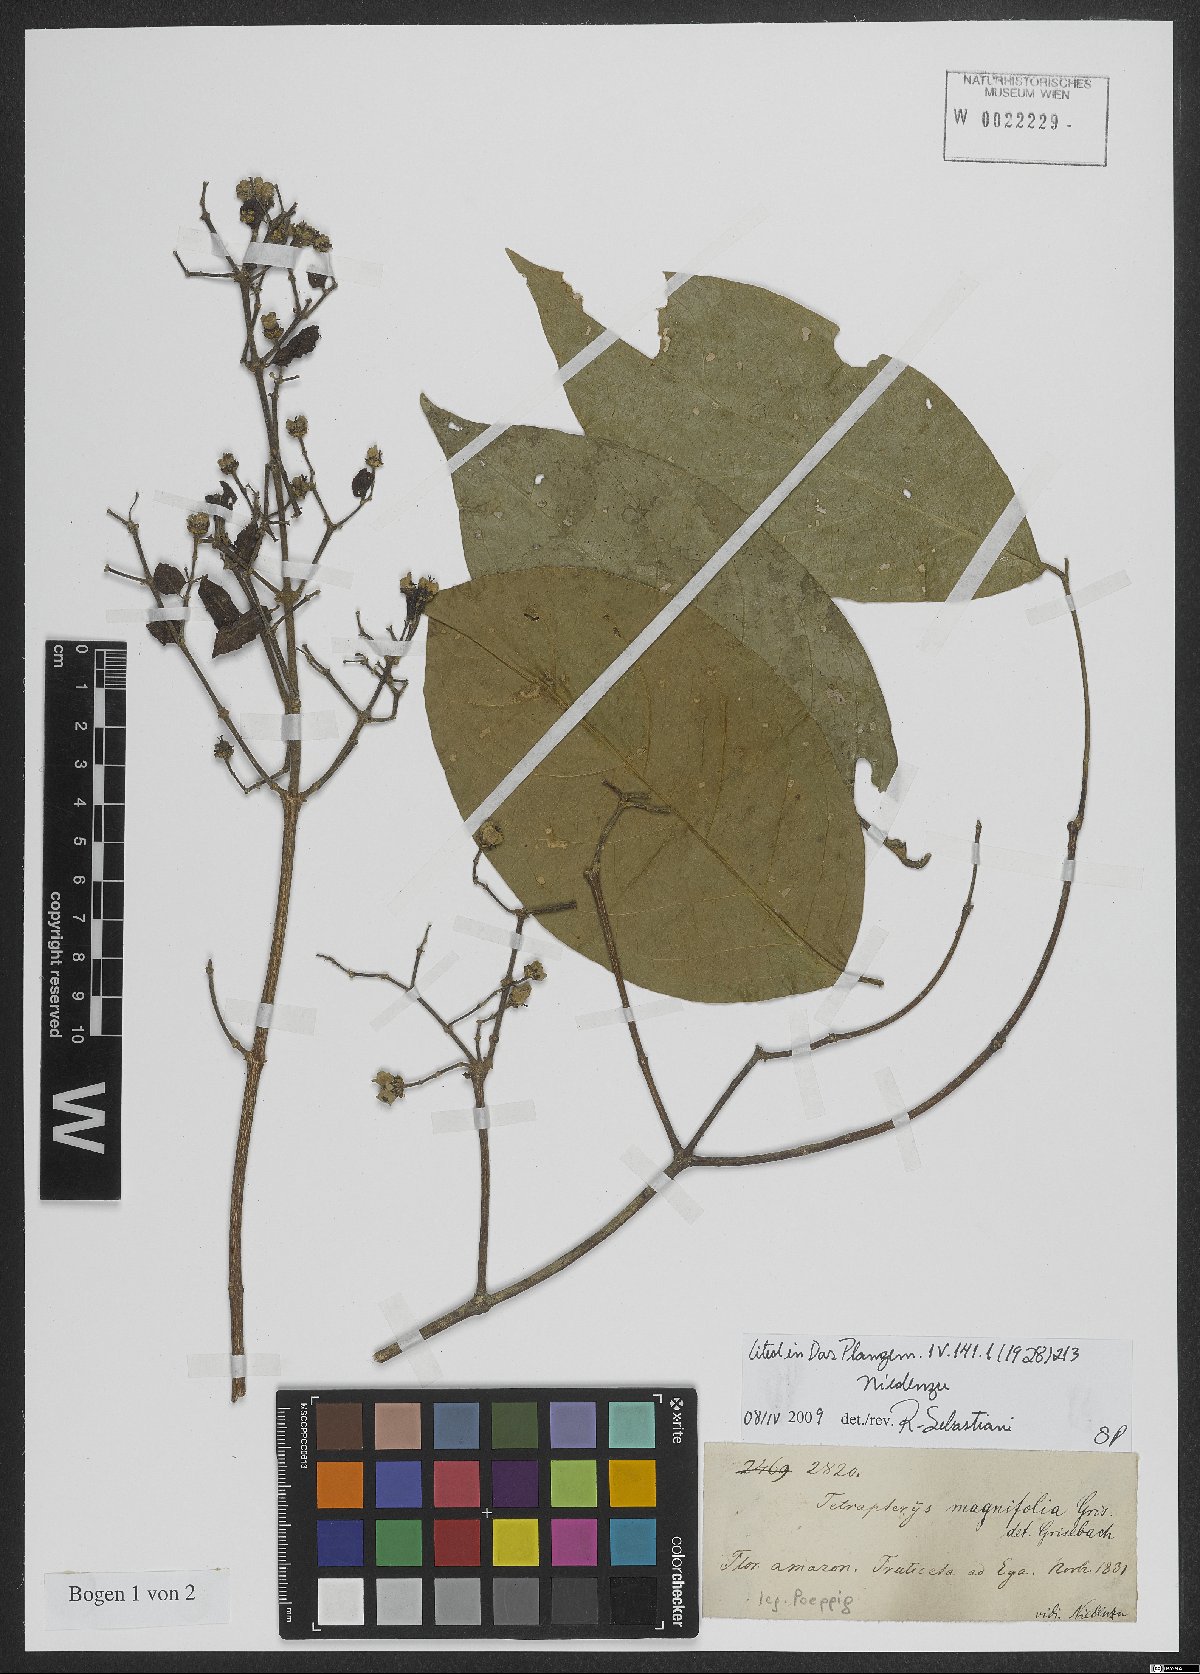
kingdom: Plantae
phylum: Tracheophyta
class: Magnoliopsida
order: Malpighiales
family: Malpighiaceae
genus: Tetrapterys
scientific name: Tetrapterys magnifolia
